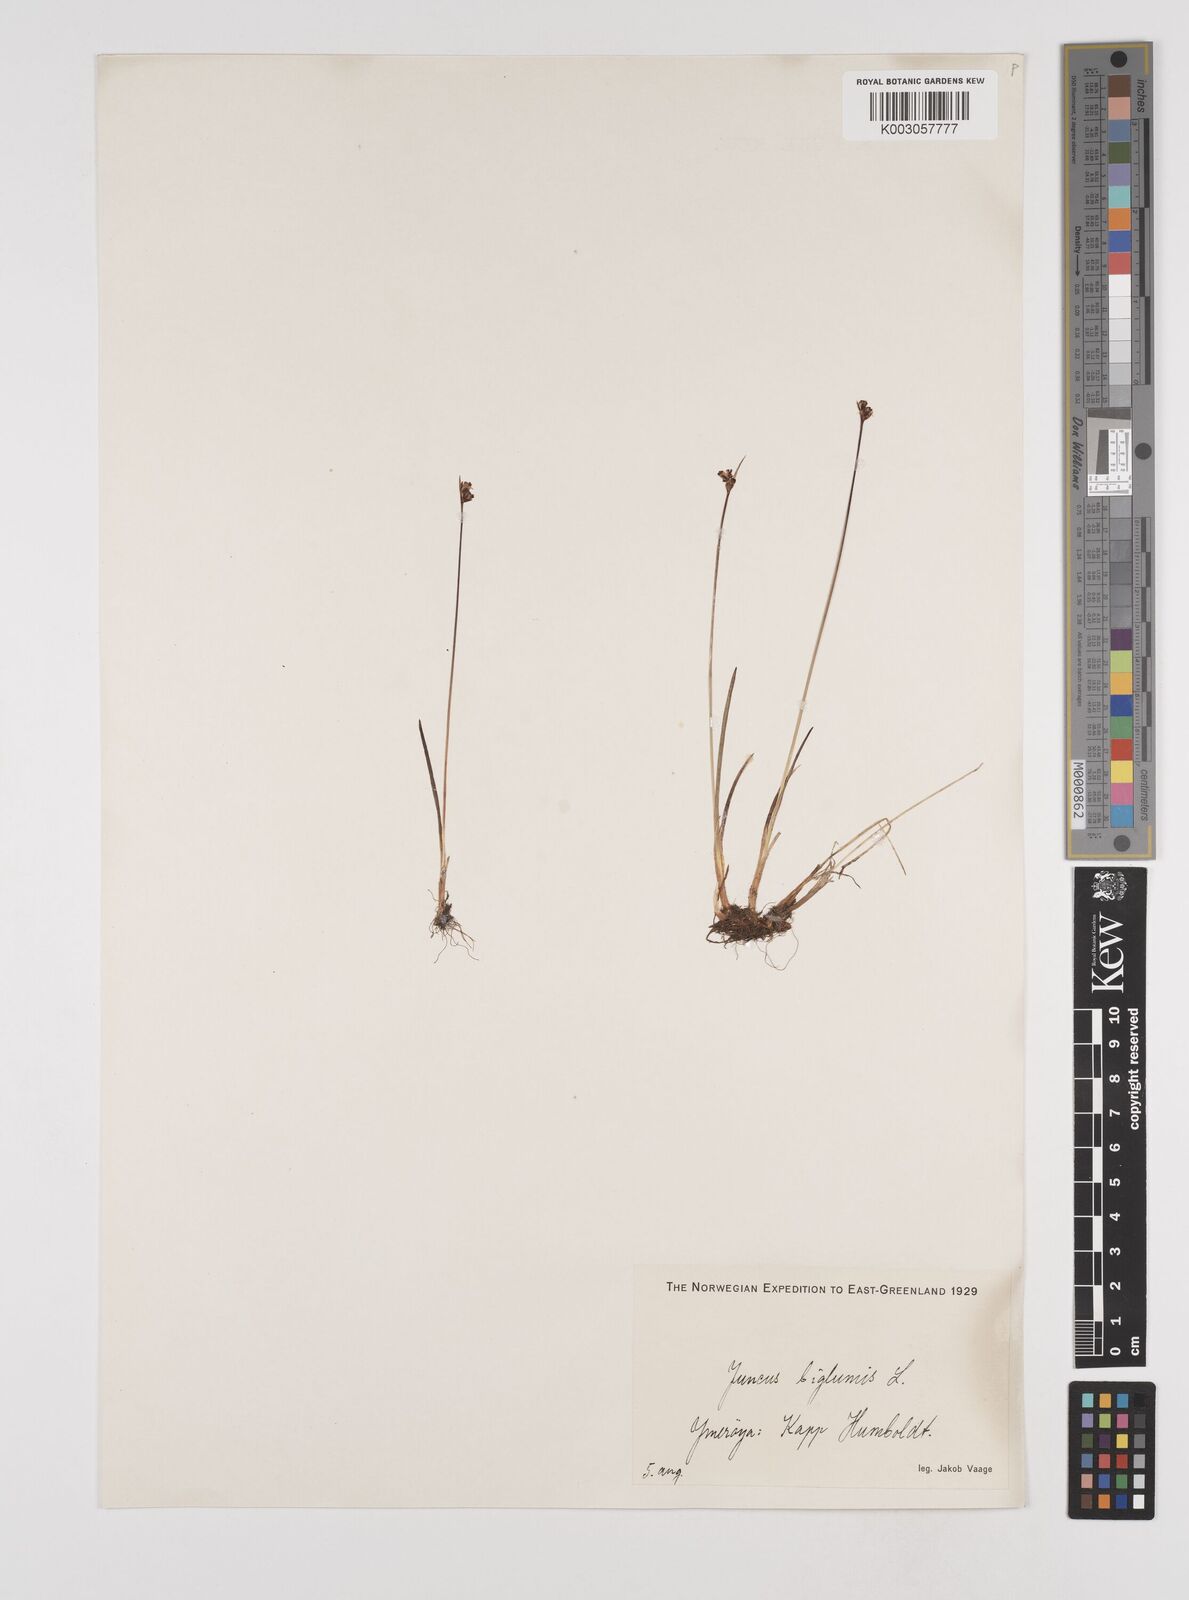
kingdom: Plantae
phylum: Tracheophyta
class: Liliopsida
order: Poales
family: Juncaceae
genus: Juncus
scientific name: Juncus biglumis
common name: Two-flowered rush
